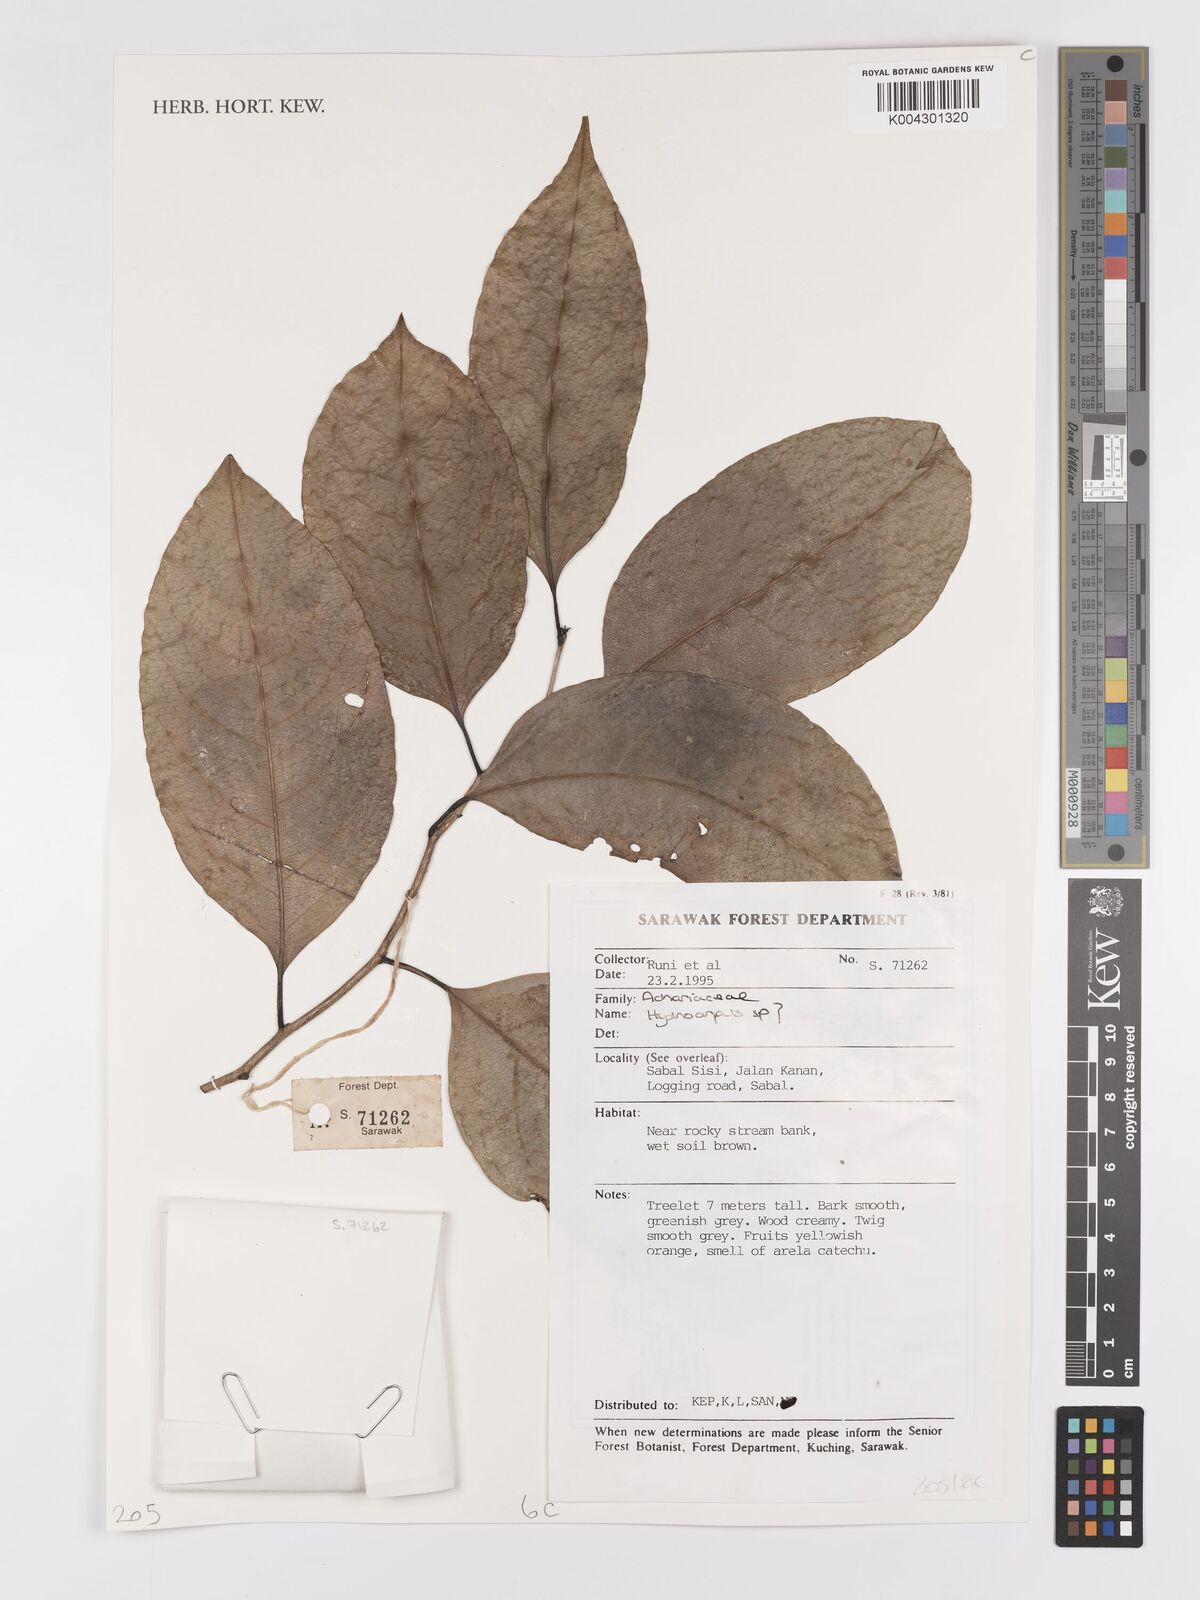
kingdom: Plantae
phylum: Tracheophyta
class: Magnoliopsida
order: Malpighiales
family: Achariaceae
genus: Hydnocarpus
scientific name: Hydnocarpus
